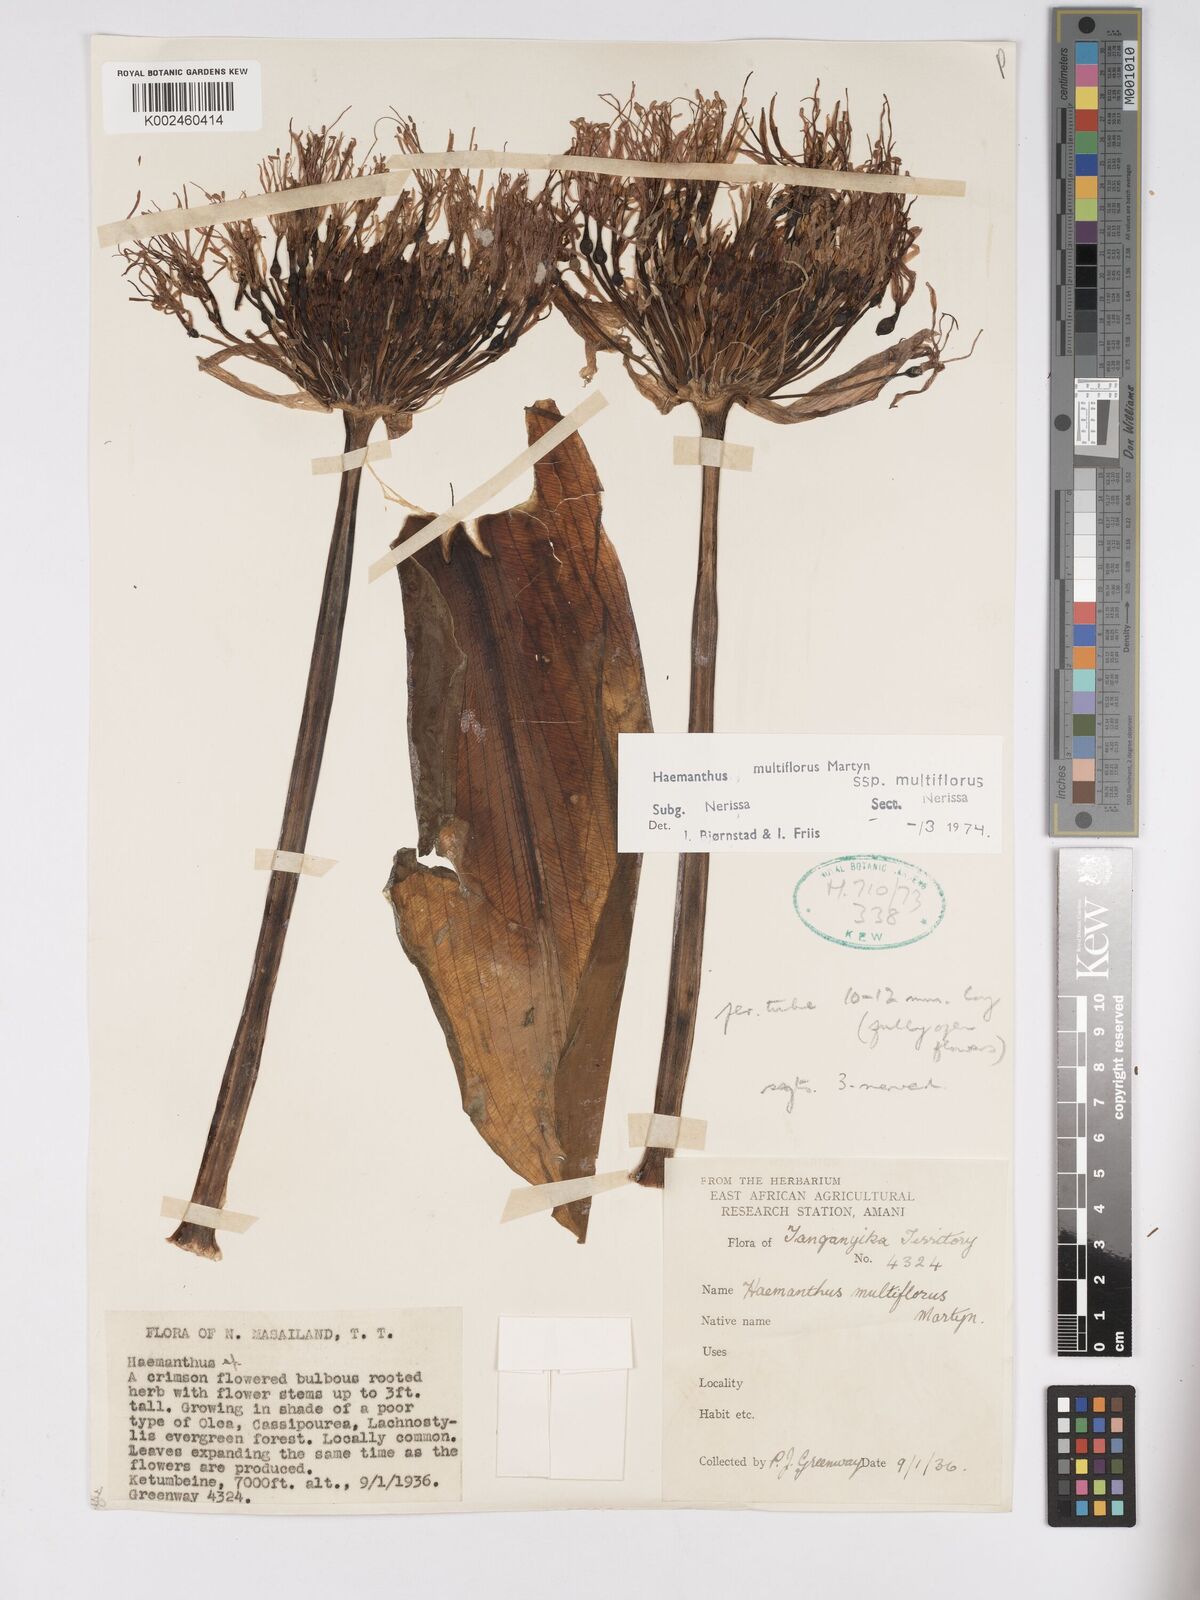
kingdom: Plantae
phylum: Tracheophyta
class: Liliopsida
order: Asparagales
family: Amaryllidaceae
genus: Scadoxus
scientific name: Scadoxus multiflorus
